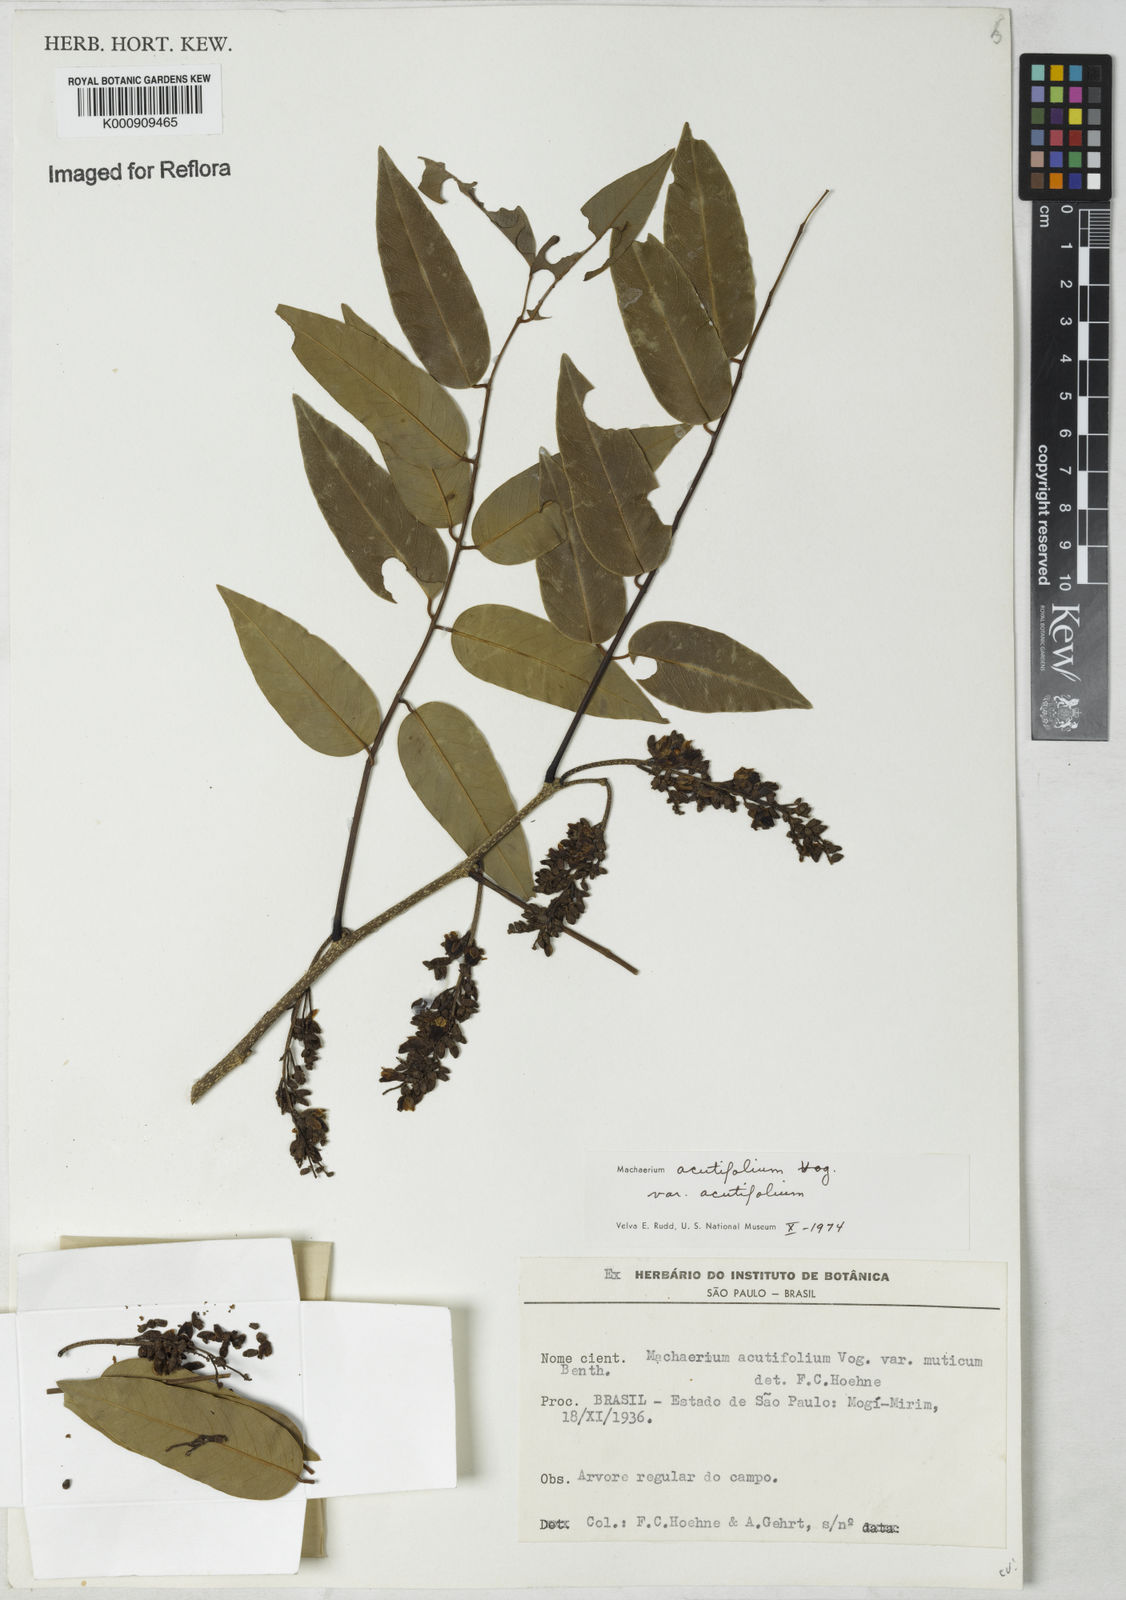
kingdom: Plantae
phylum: Tracheophyta
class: Magnoliopsida
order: Fabales
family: Fabaceae
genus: Machaerium
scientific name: Machaerium acutifolium
